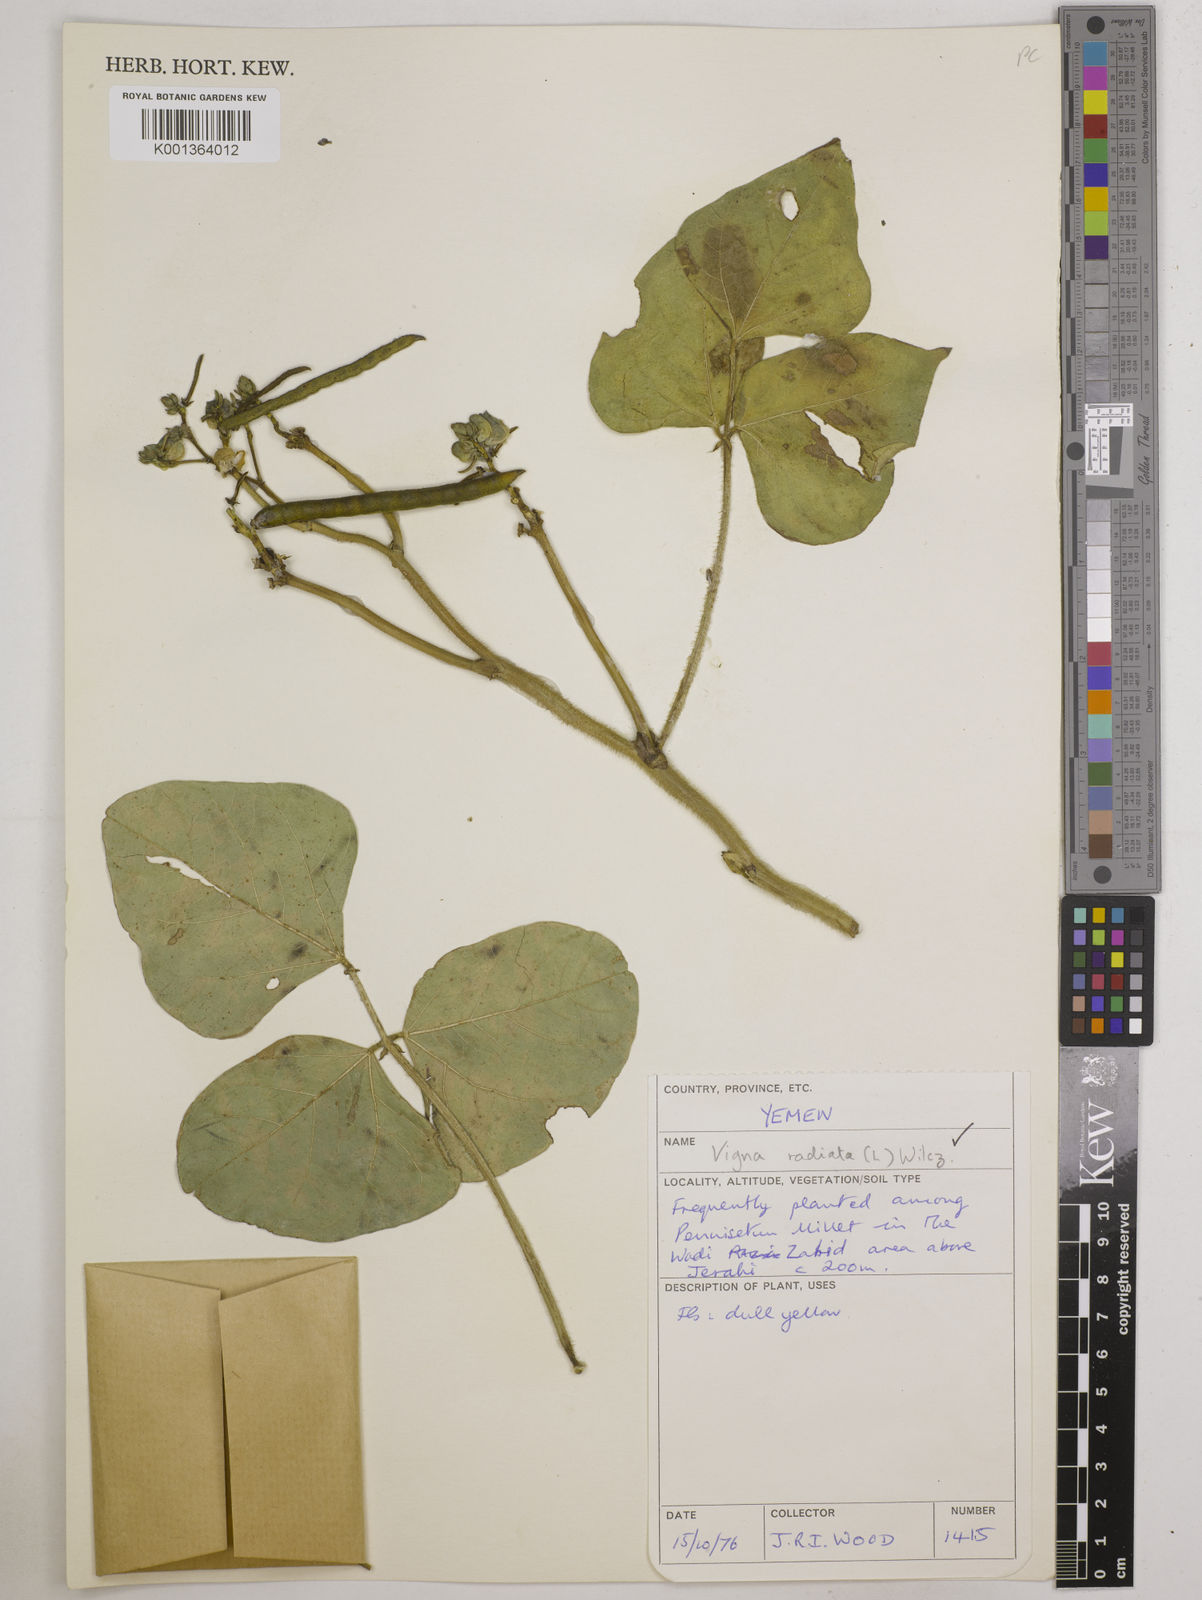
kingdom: Plantae
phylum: Tracheophyta
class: Magnoliopsida
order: Fabales
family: Fabaceae
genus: Vigna
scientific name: Vigna radiata
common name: Mung-bean
